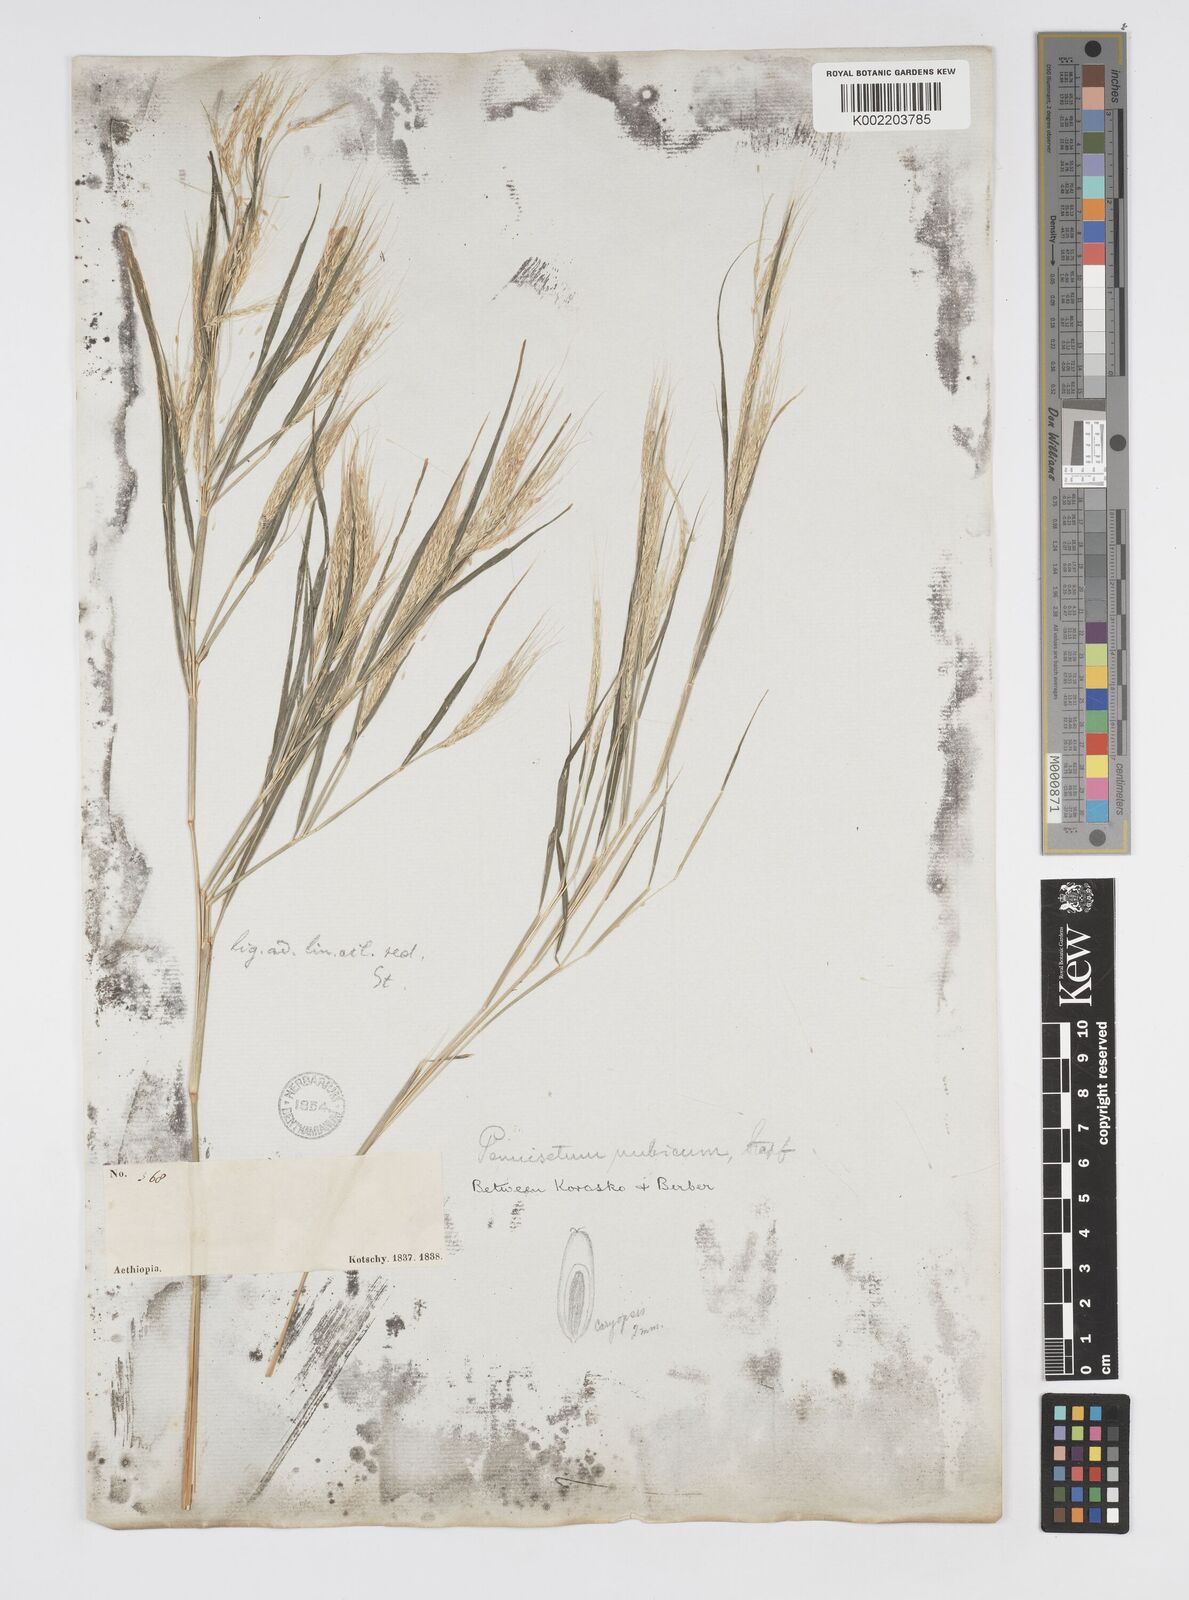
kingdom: Plantae
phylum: Tracheophyta
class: Liliopsida
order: Poales
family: Poaceae
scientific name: Poaceae
